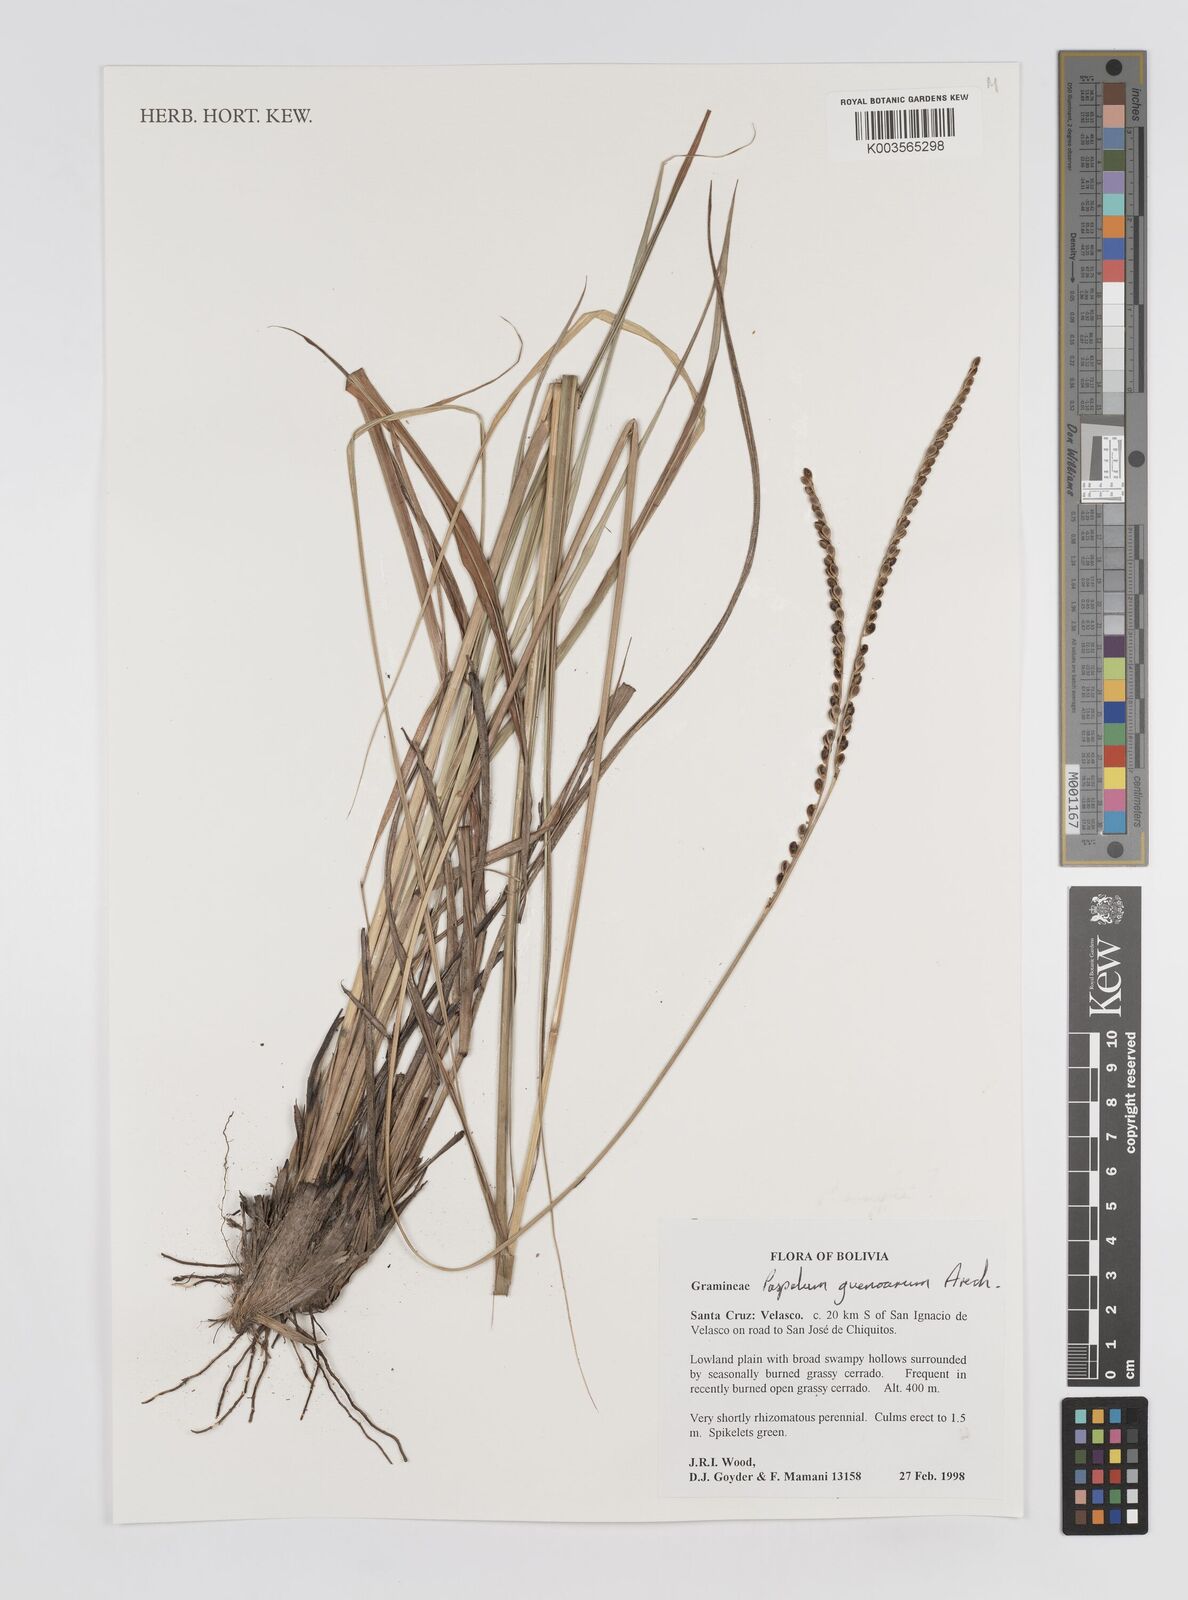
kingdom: Plantae
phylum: Tracheophyta
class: Liliopsida
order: Poales
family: Poaceae
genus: Paspalum
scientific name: Paspalum guenoarum
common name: Wintergreen paspalum
